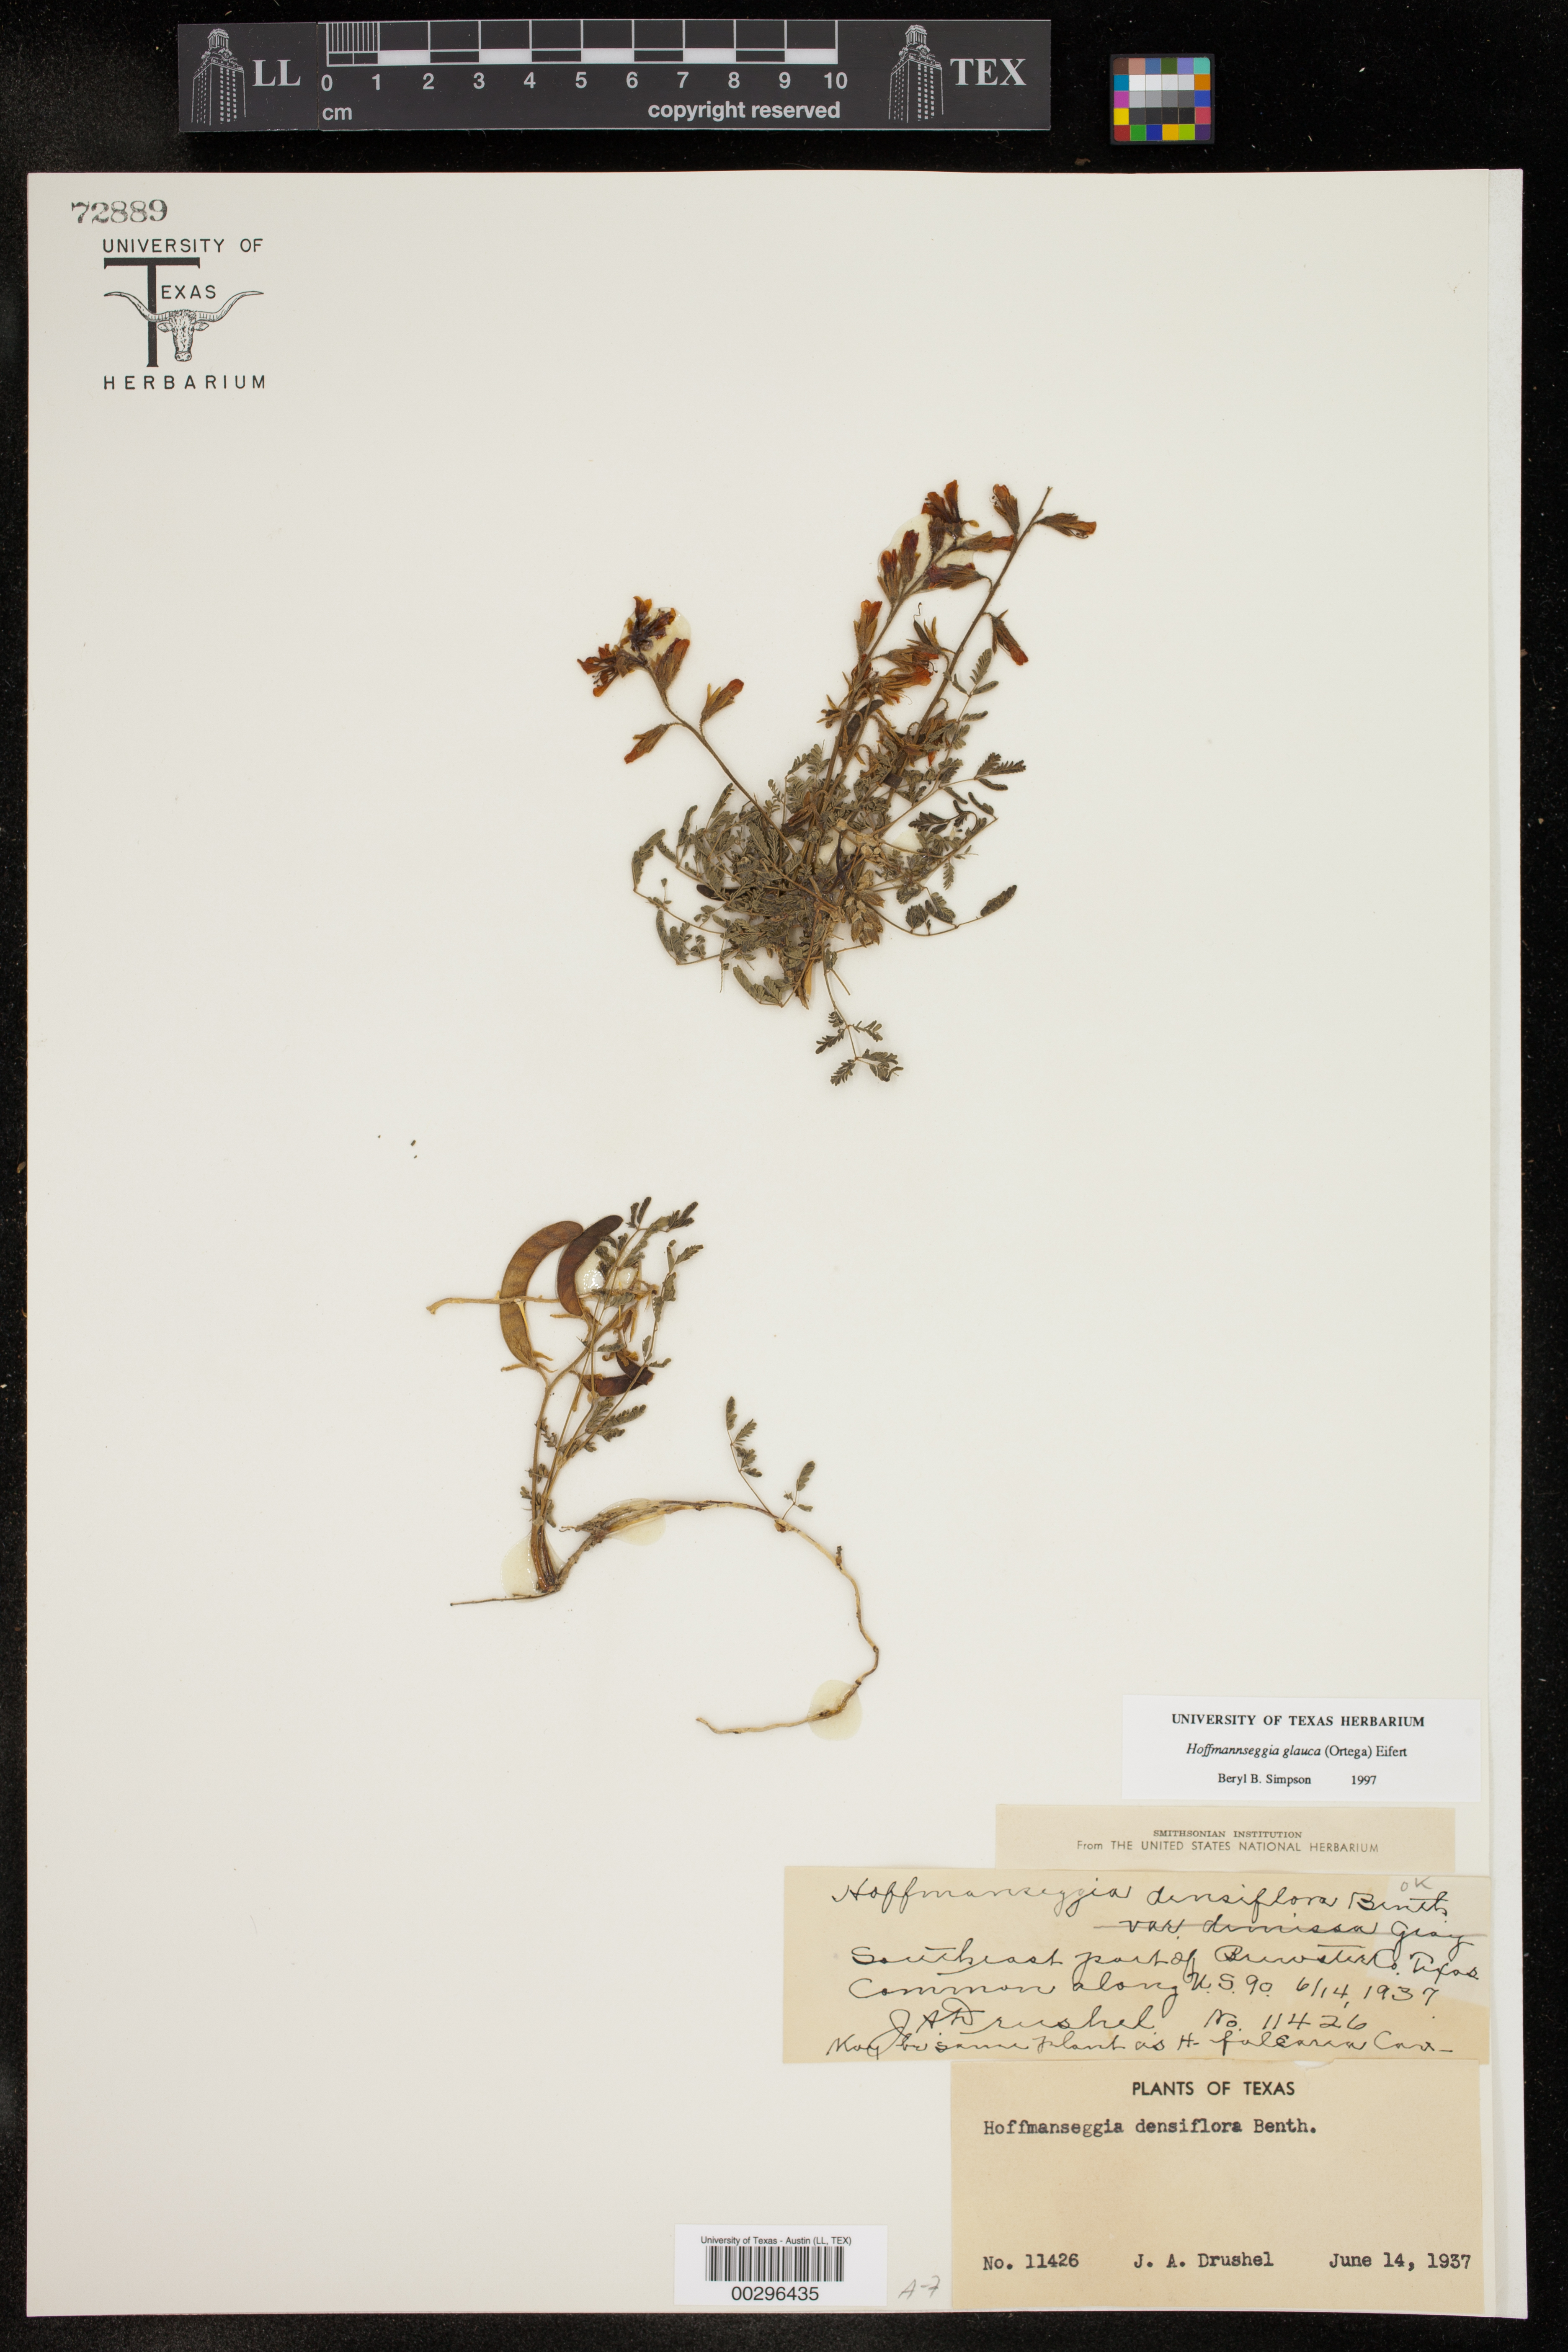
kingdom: Plantae
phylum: Tracheophyta
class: Magnoliopsida
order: Fabales
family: Fabaceae
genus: Hoffmannseggia
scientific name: Hoffmannseggia glauca
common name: Pignut
